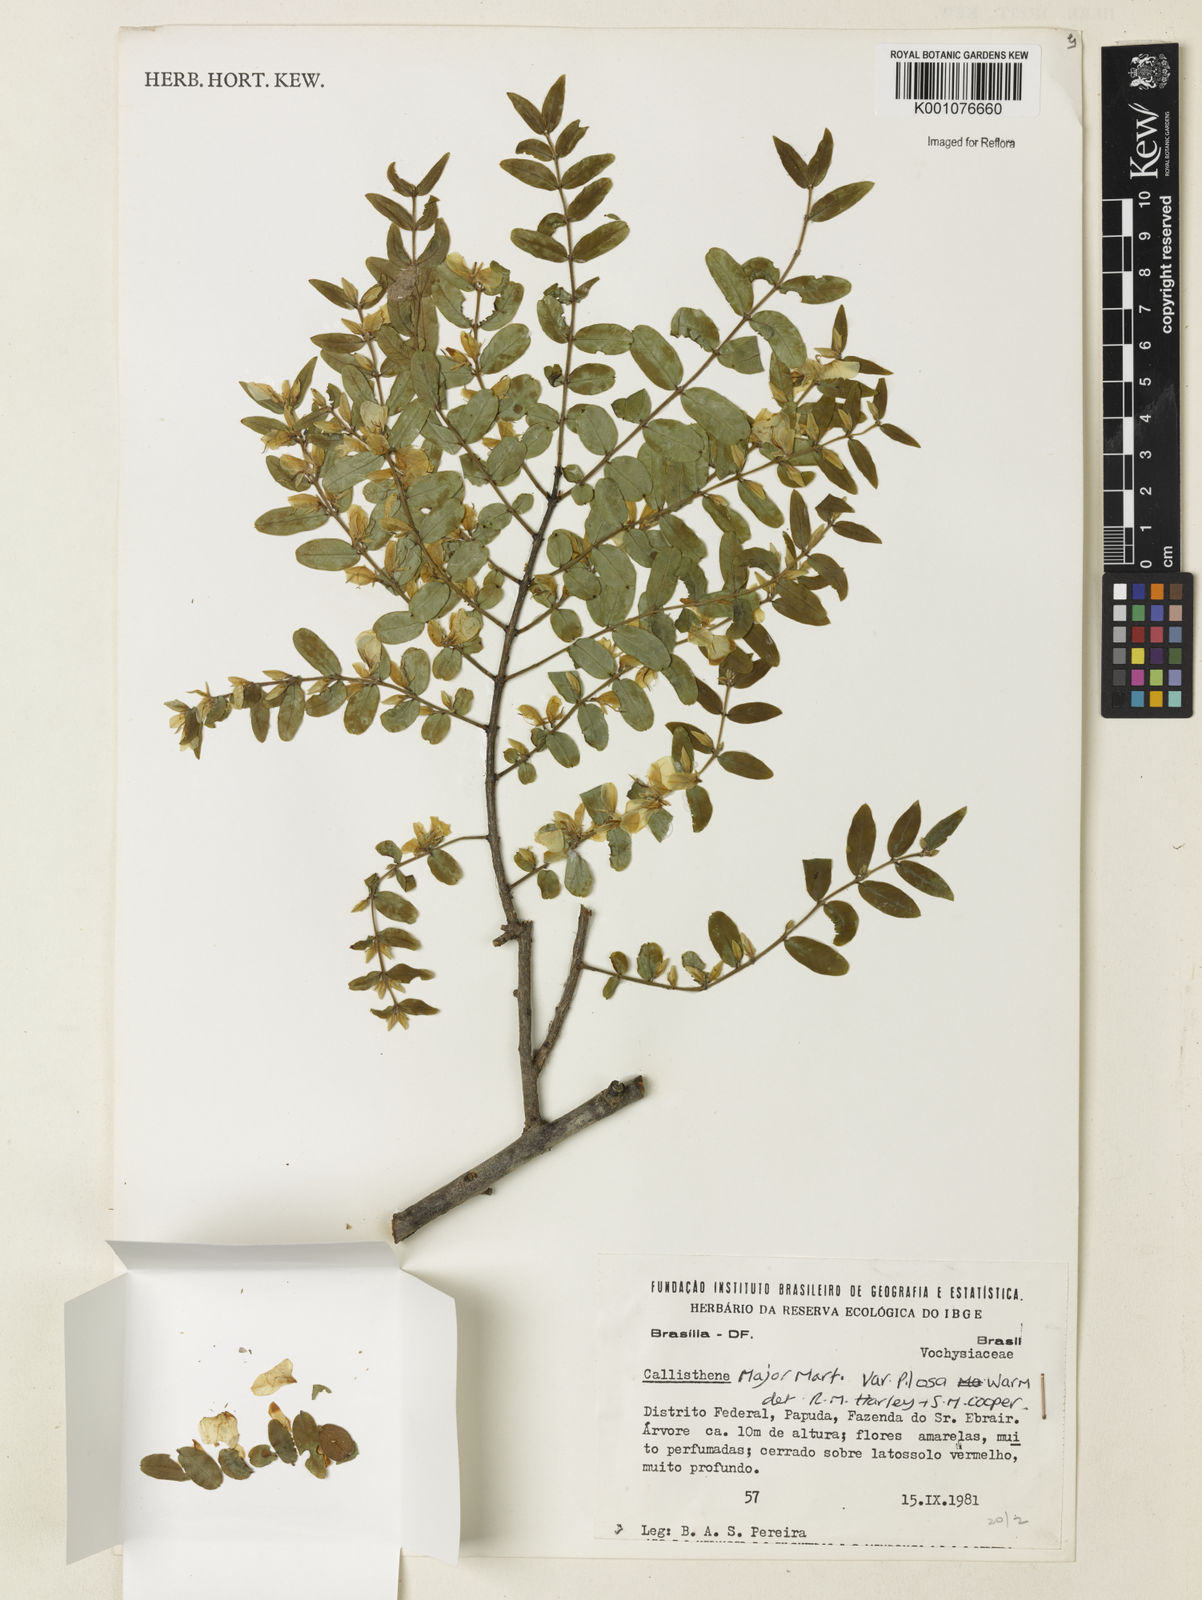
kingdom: Plantae
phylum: Tracheophyta
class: Magnoliopsida
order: Myrtales
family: Vochysiaceae
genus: Callisthene
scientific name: Callisthene major
